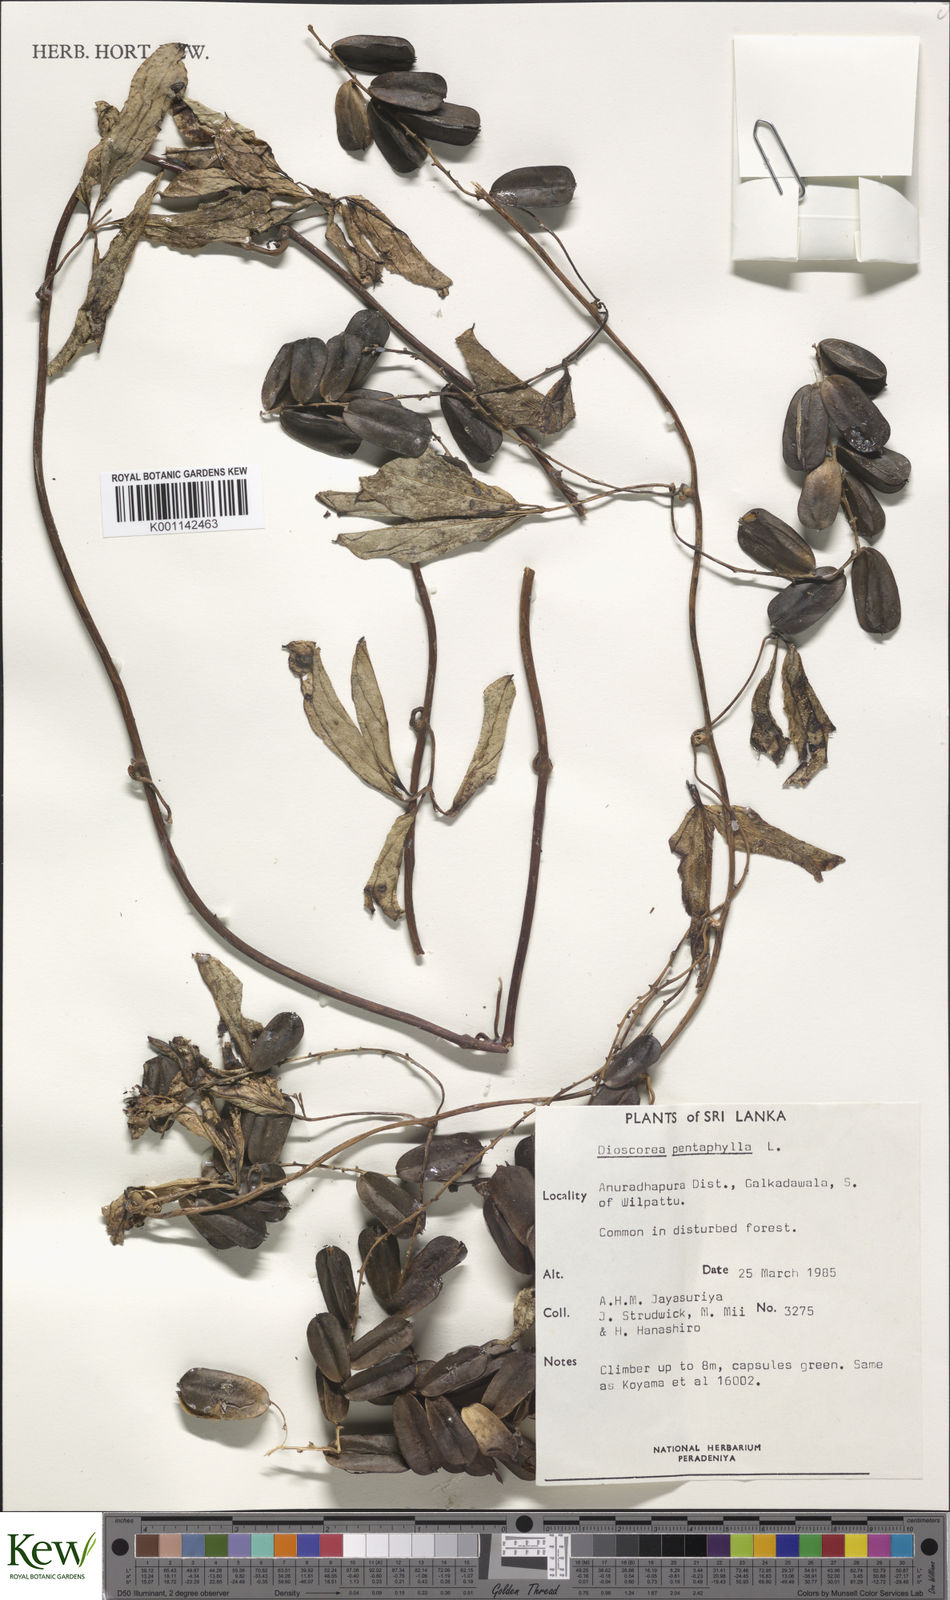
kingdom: Plantae
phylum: Tracheophyta
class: Liliopsida
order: Dioscoreales
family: Dioscoreaceae
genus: Dioscorea
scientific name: Dioscorea pentaphylla
